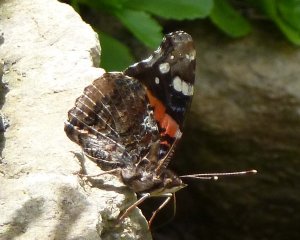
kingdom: Animalia
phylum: Arthropoda
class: Insecta
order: Lepidoptera
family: Nymphalidae
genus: Vanessa
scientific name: Vanessa atalanta
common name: Red Admiral
